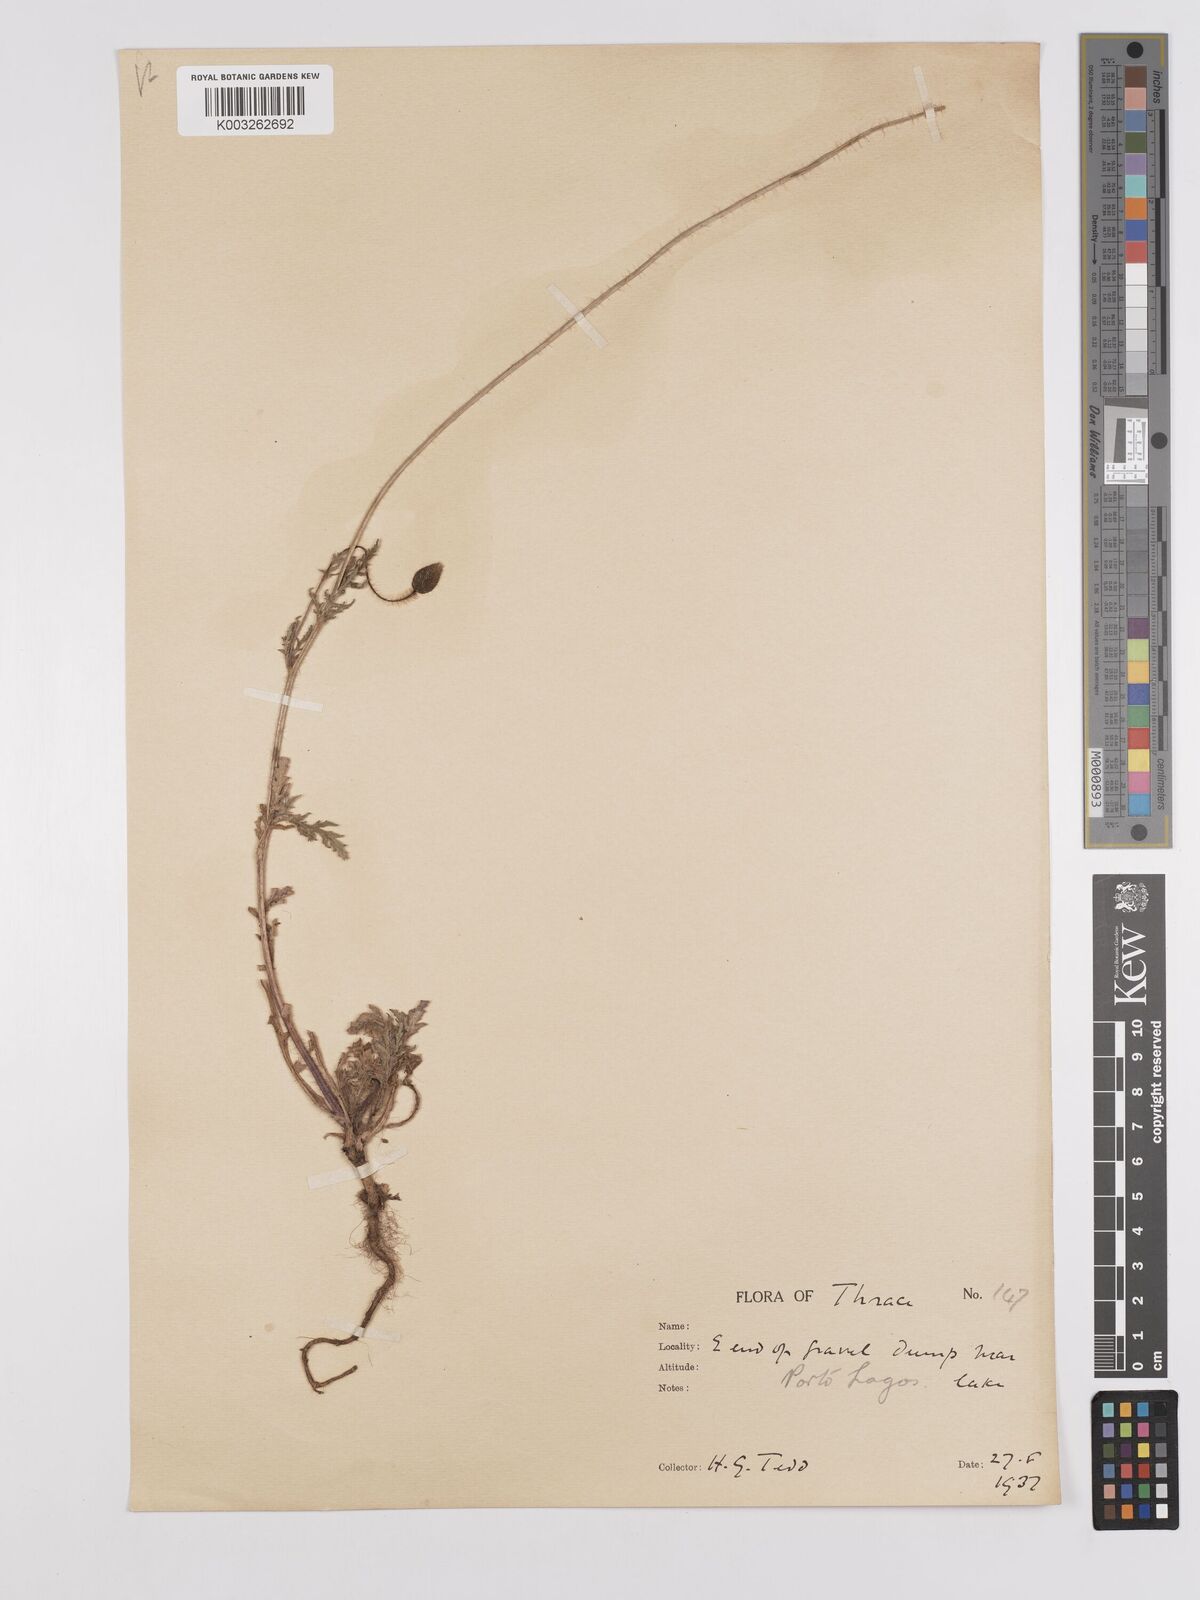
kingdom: Plantae
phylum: Tracheophyta
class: Magnoliopsida
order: Ranunculales
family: Papaveraceae
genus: Papaver
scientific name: Papaver
